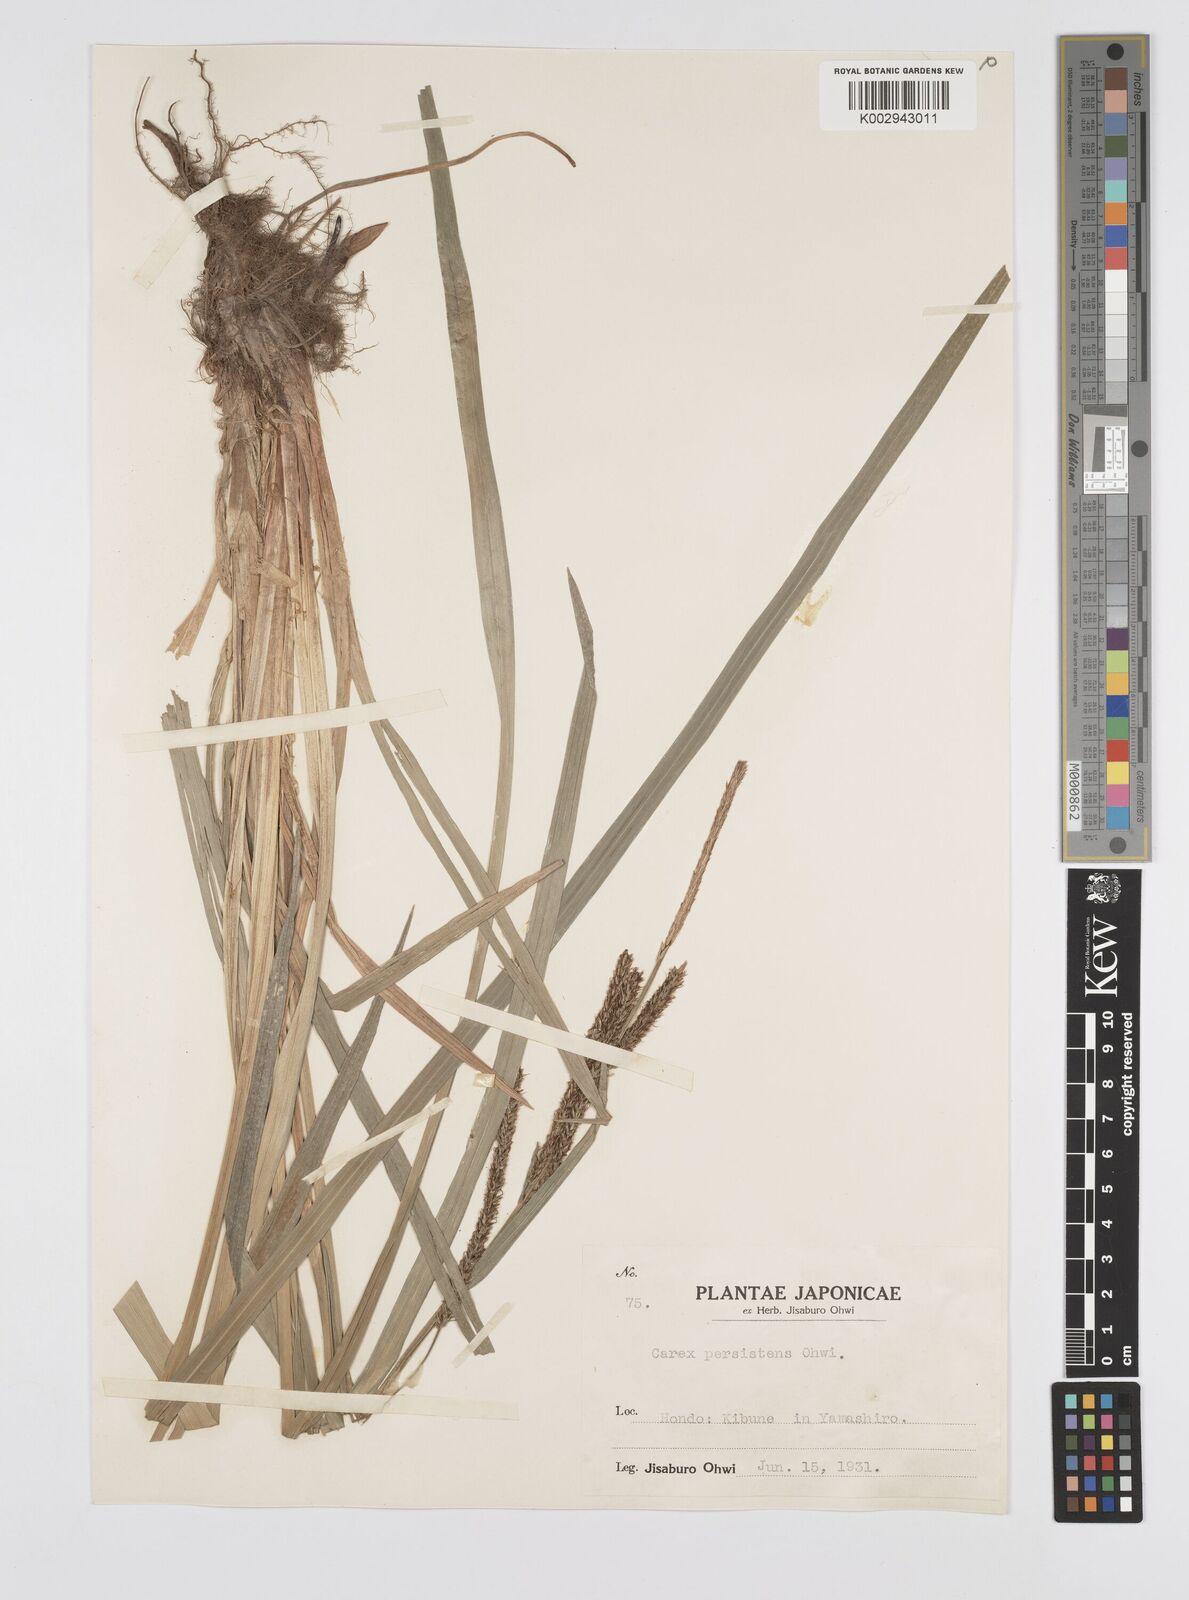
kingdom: Plantae
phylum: Tracheophyta
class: Liliopsida
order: Poales
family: Cyperaceae
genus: Carex
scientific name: Carex dispalata
